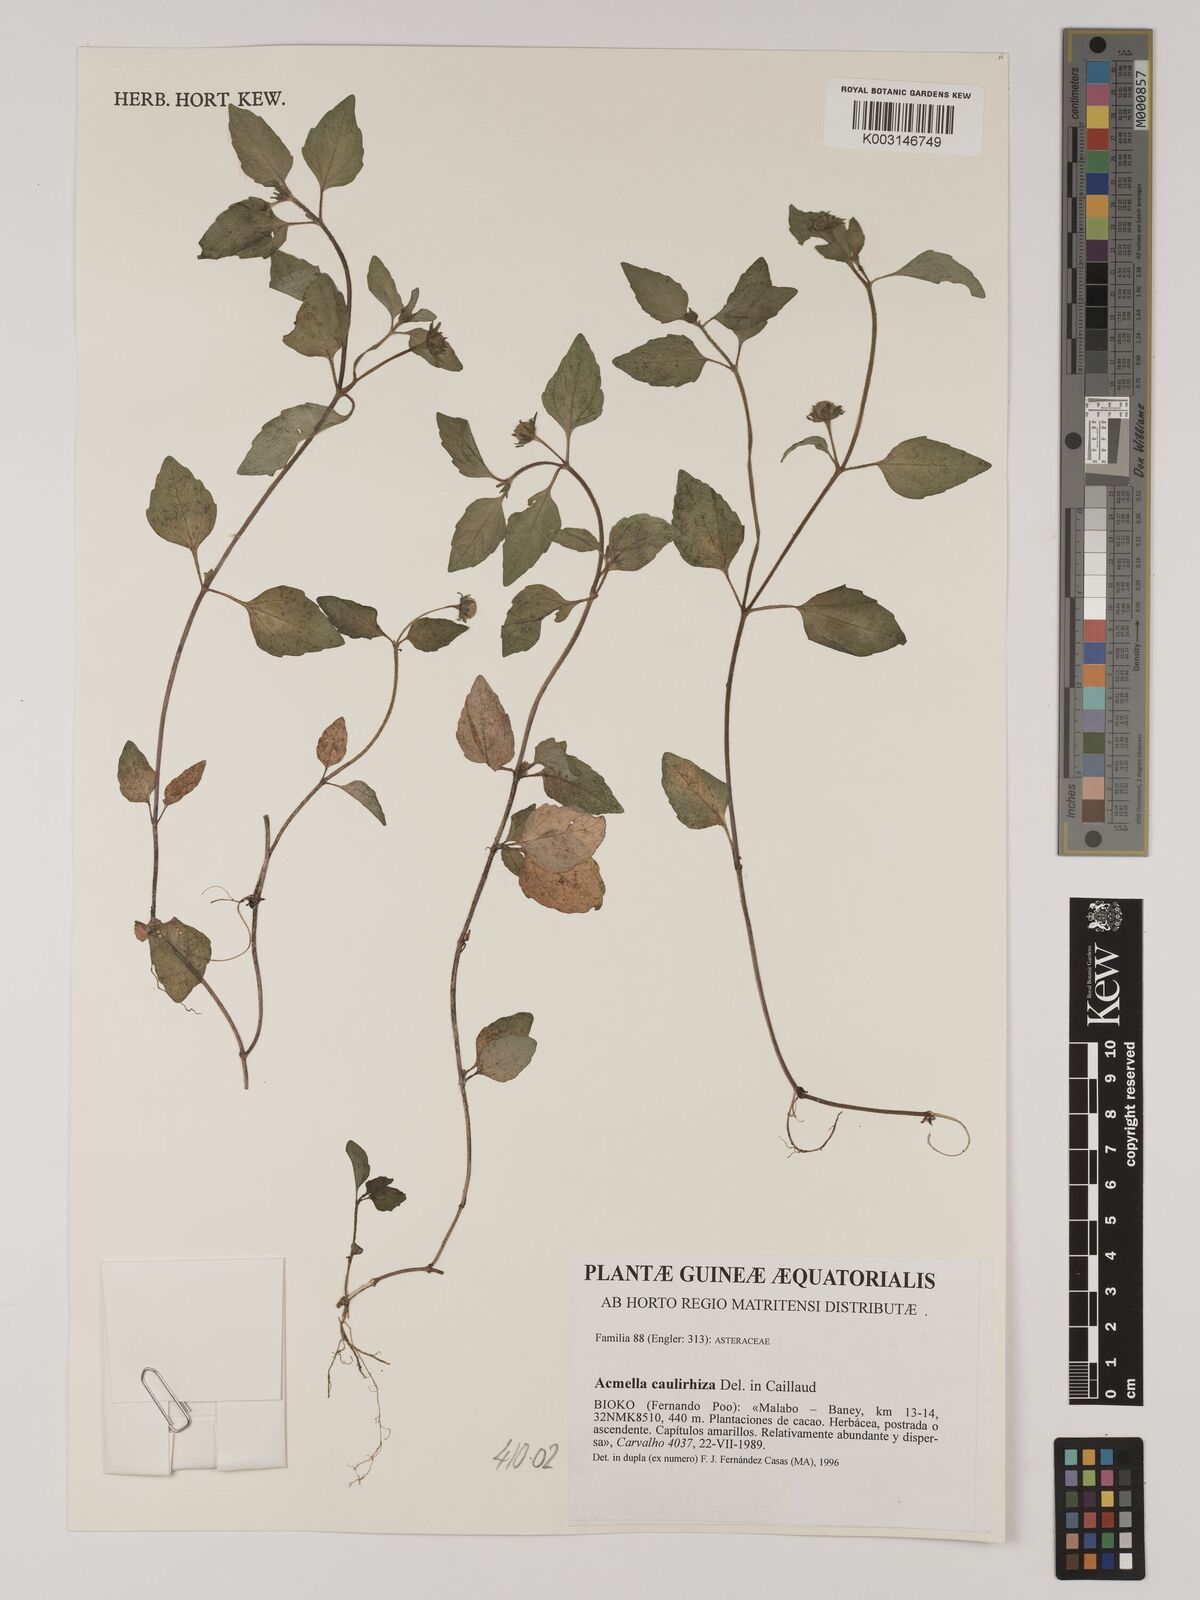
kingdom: Plantae
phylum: Tracheophyta
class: Magnoliopsida
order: Asterales
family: Asteraceae
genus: Acmella
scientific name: Acmella caulirhiza
